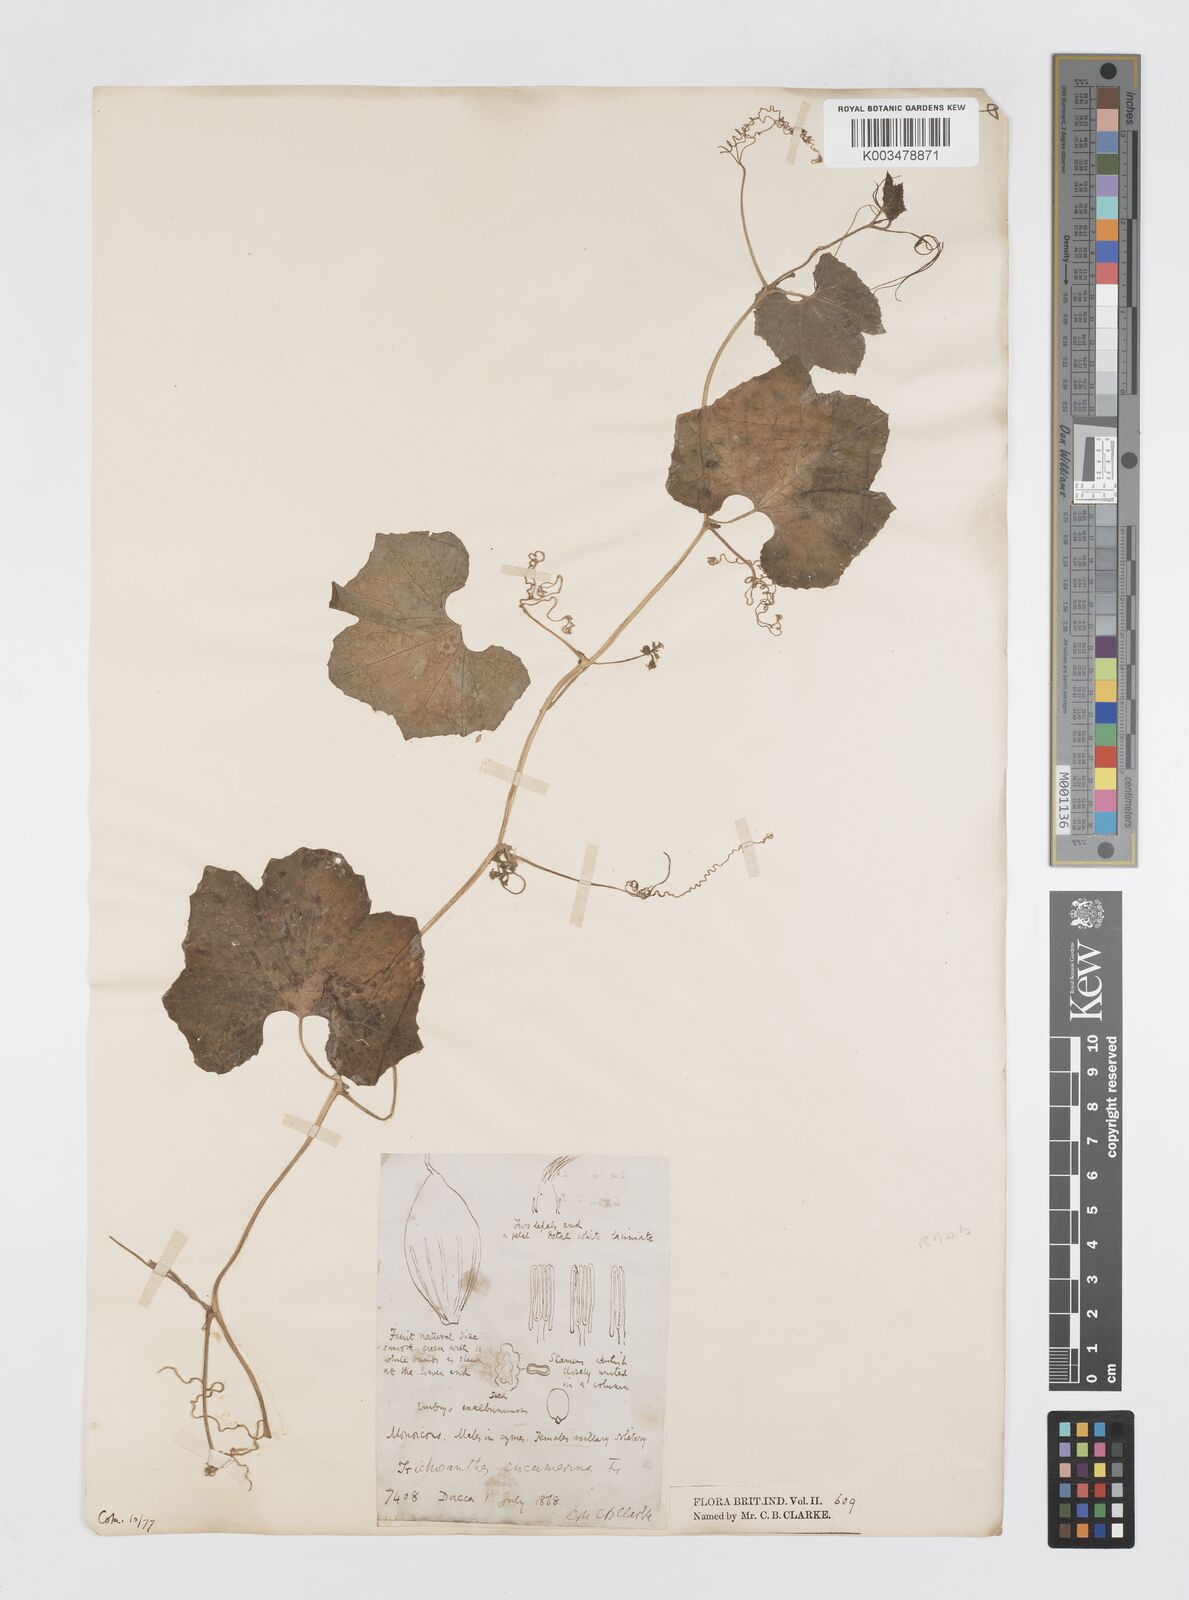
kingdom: Plantae
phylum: Tracheophyta
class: Magnoliopsida
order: Cucurbitales
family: Cucurbitaceae
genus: Trichosanthes
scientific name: Trichosanthes cucumerina
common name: Snakegourd
